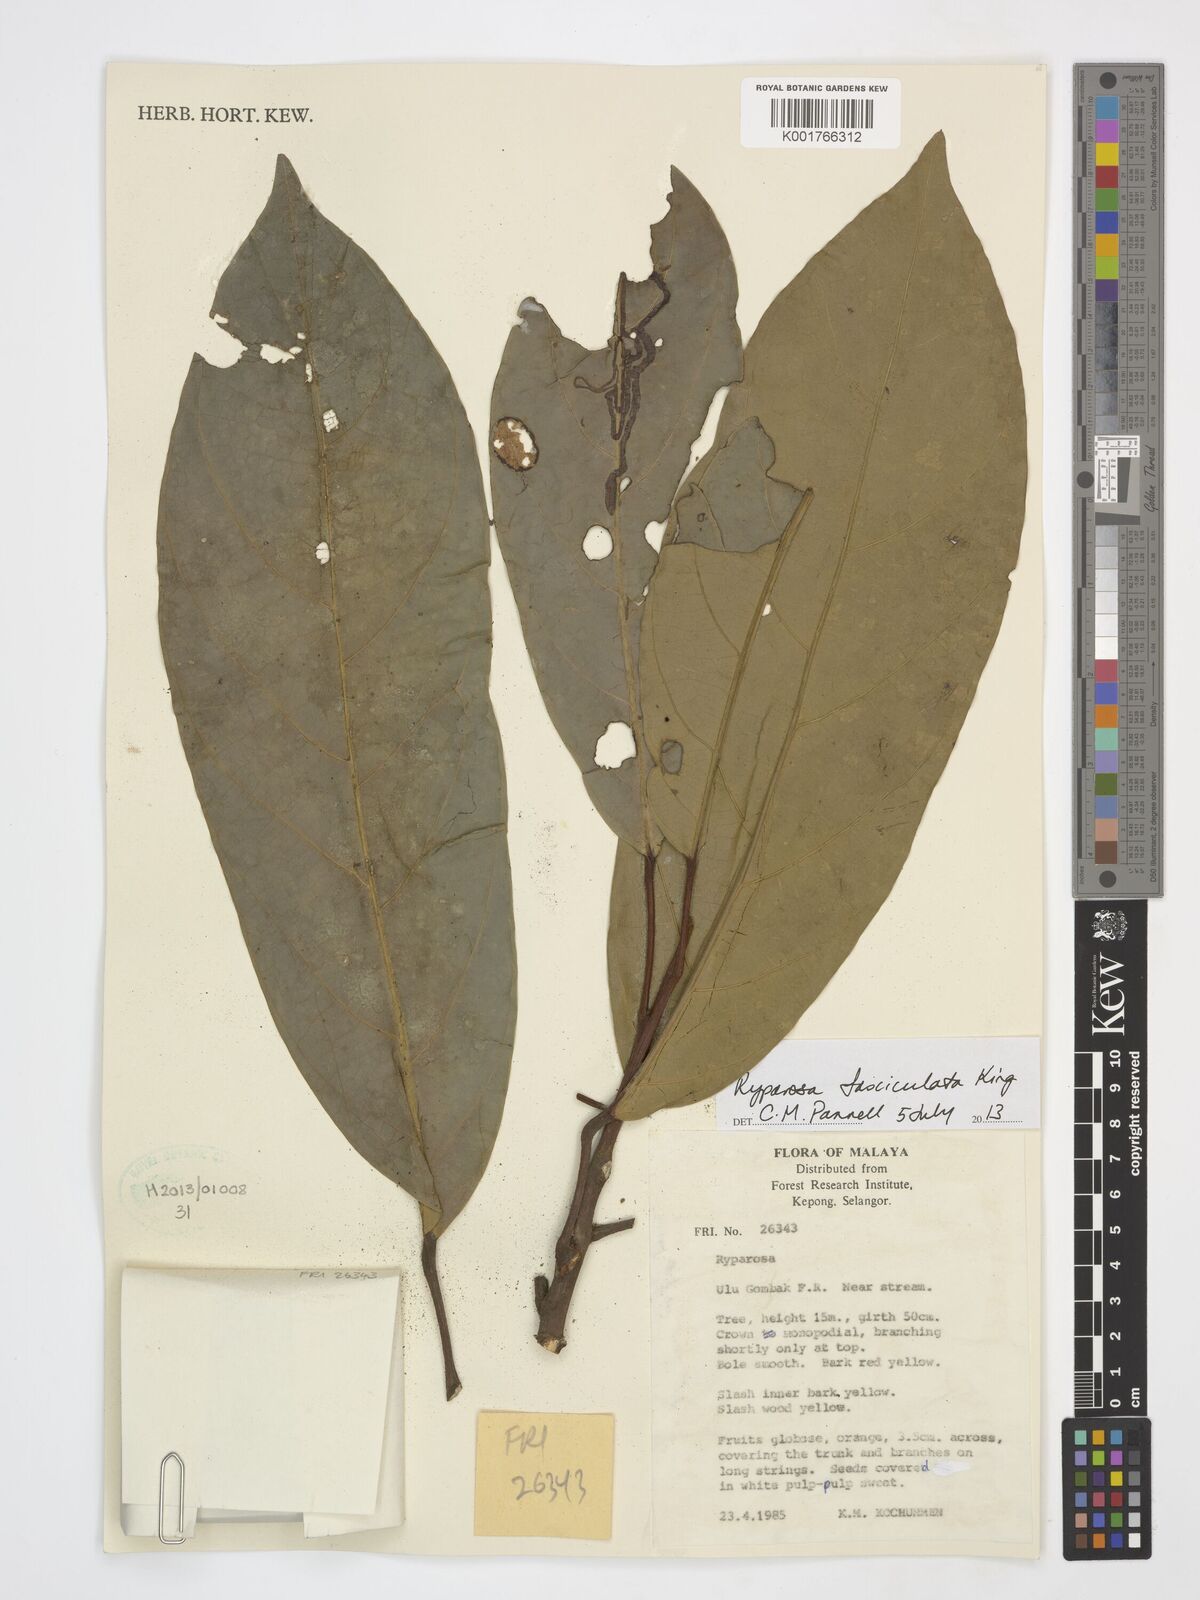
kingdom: Plantae
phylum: Tracheophyta
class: Magnoliopsida
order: Malpighiales
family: Achariaceae
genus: Ryparosa
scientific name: Ryparosa fasciculata
